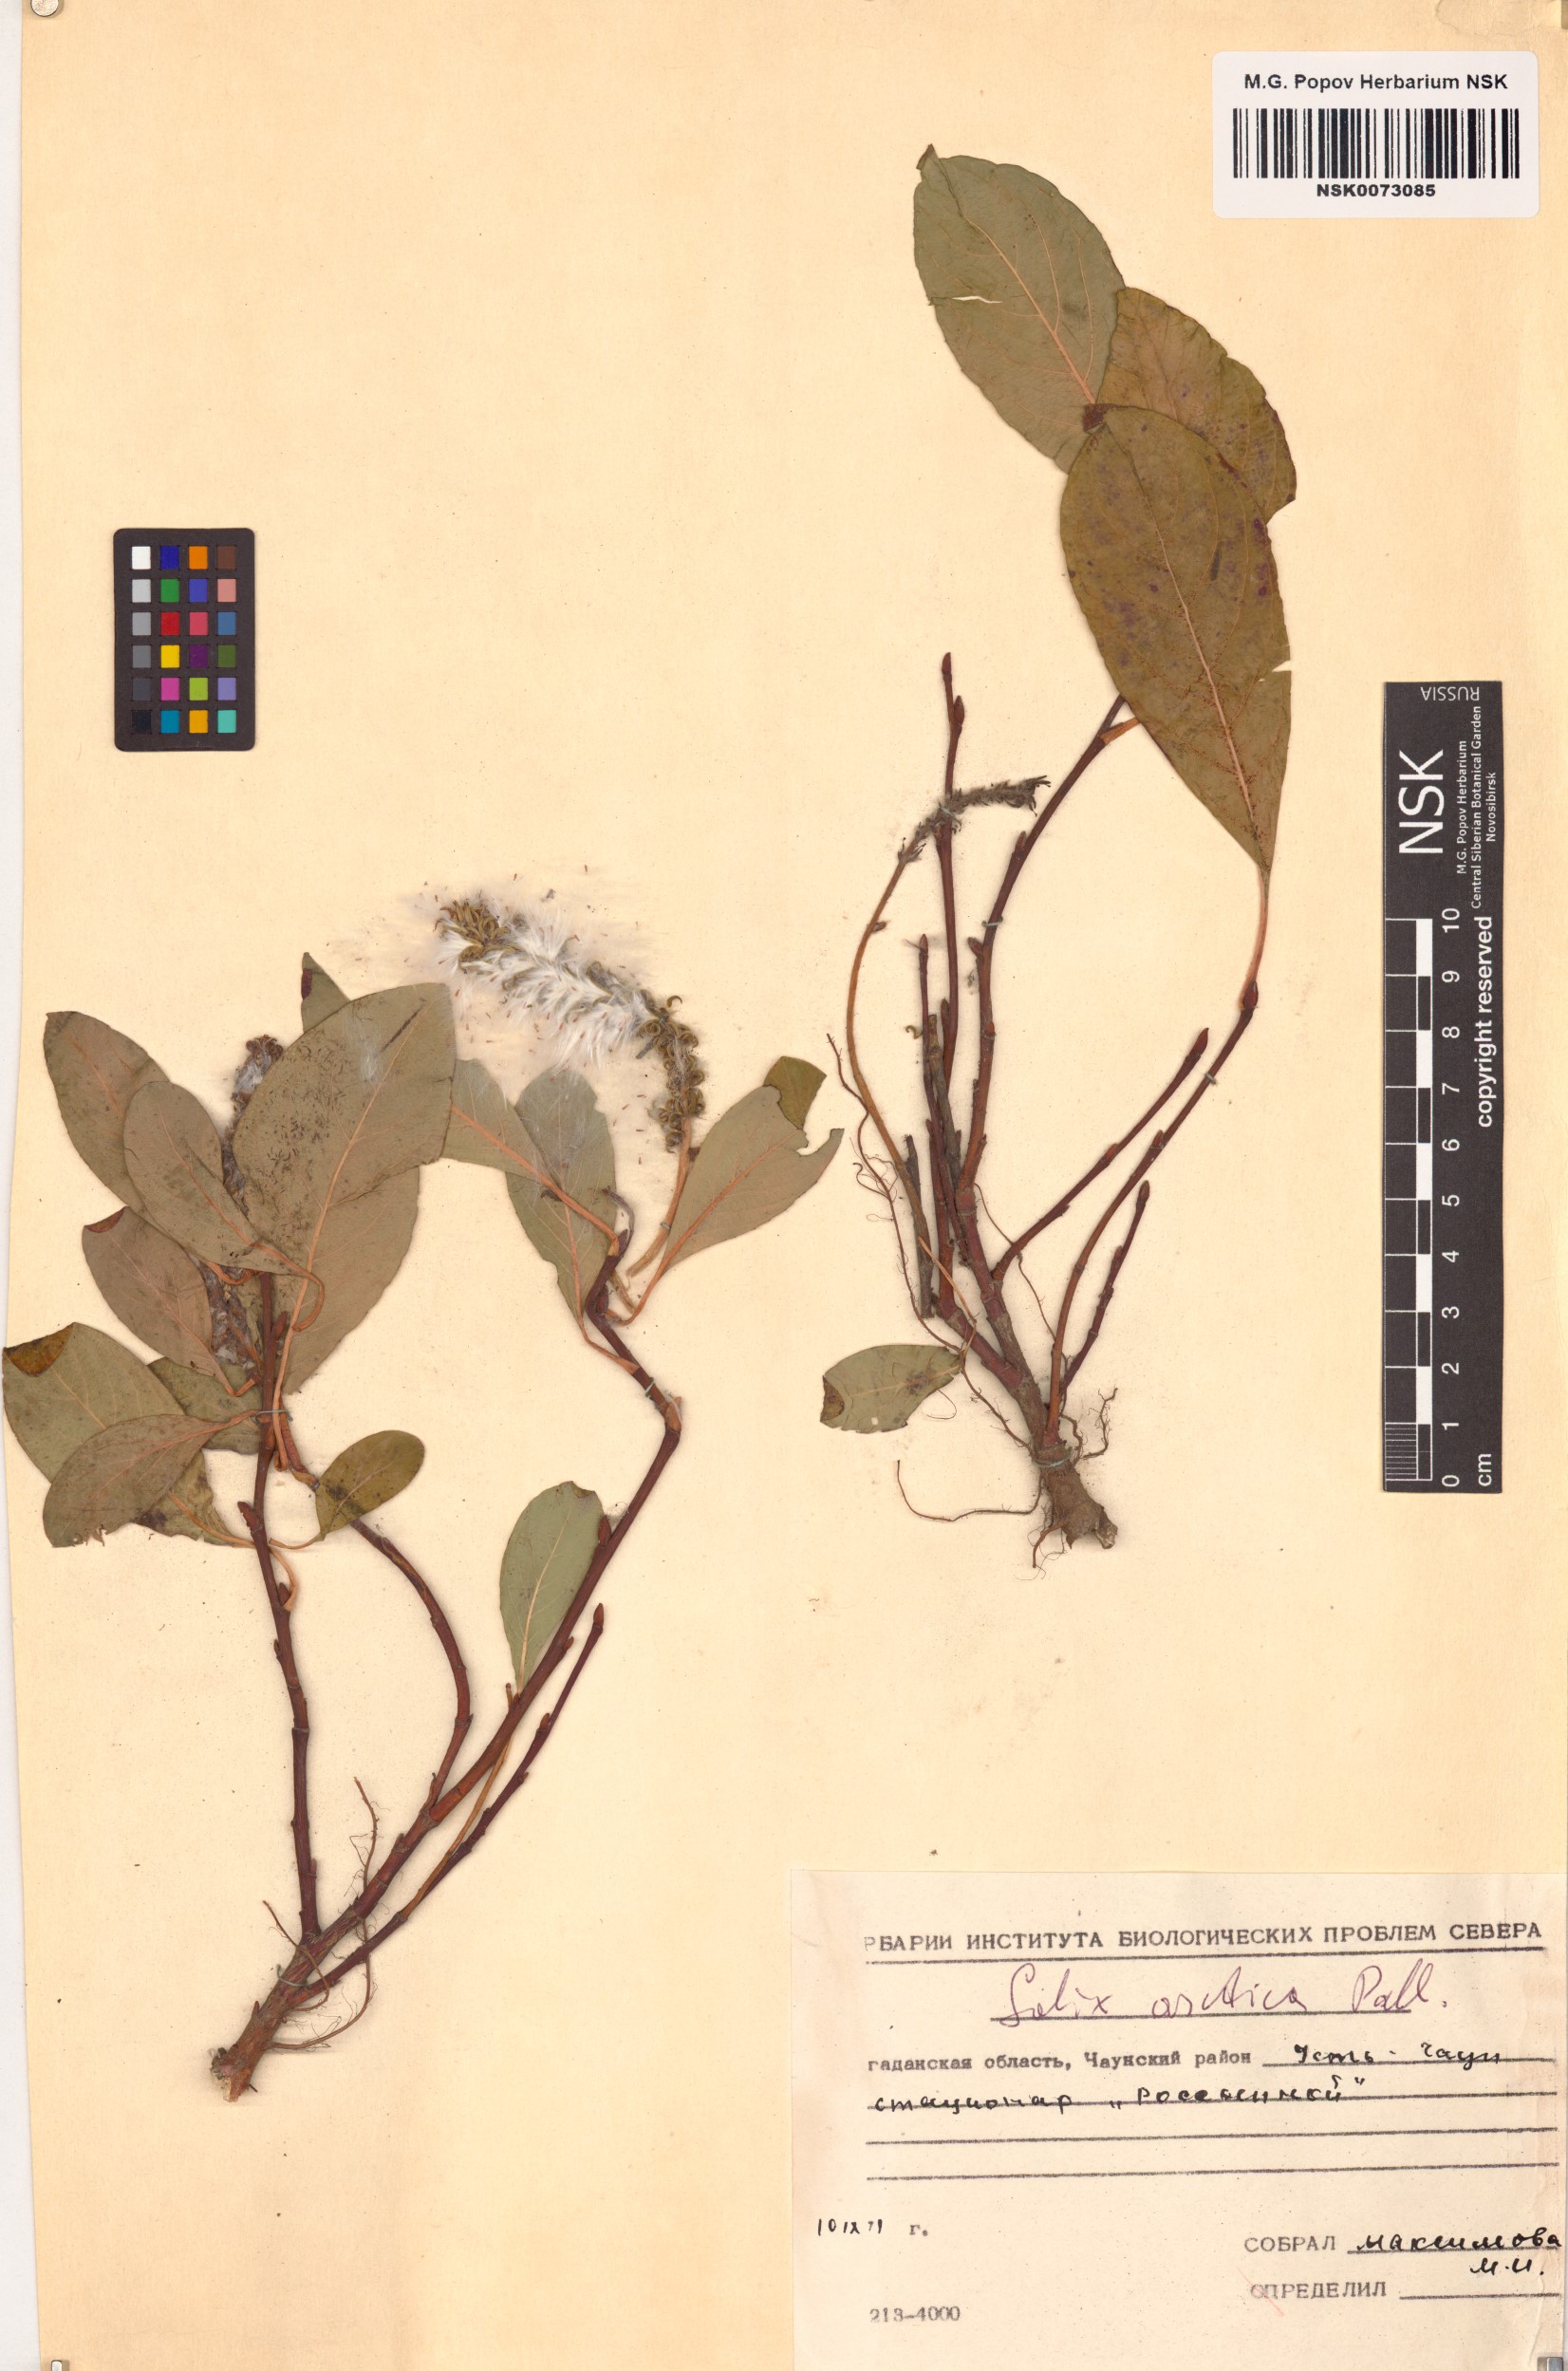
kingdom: Plantae
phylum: Tracheophyta
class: Magnoliopsida
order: Malpighiales
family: Salicaceae
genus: Salix
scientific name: Salix arctica
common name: Arctic willow
